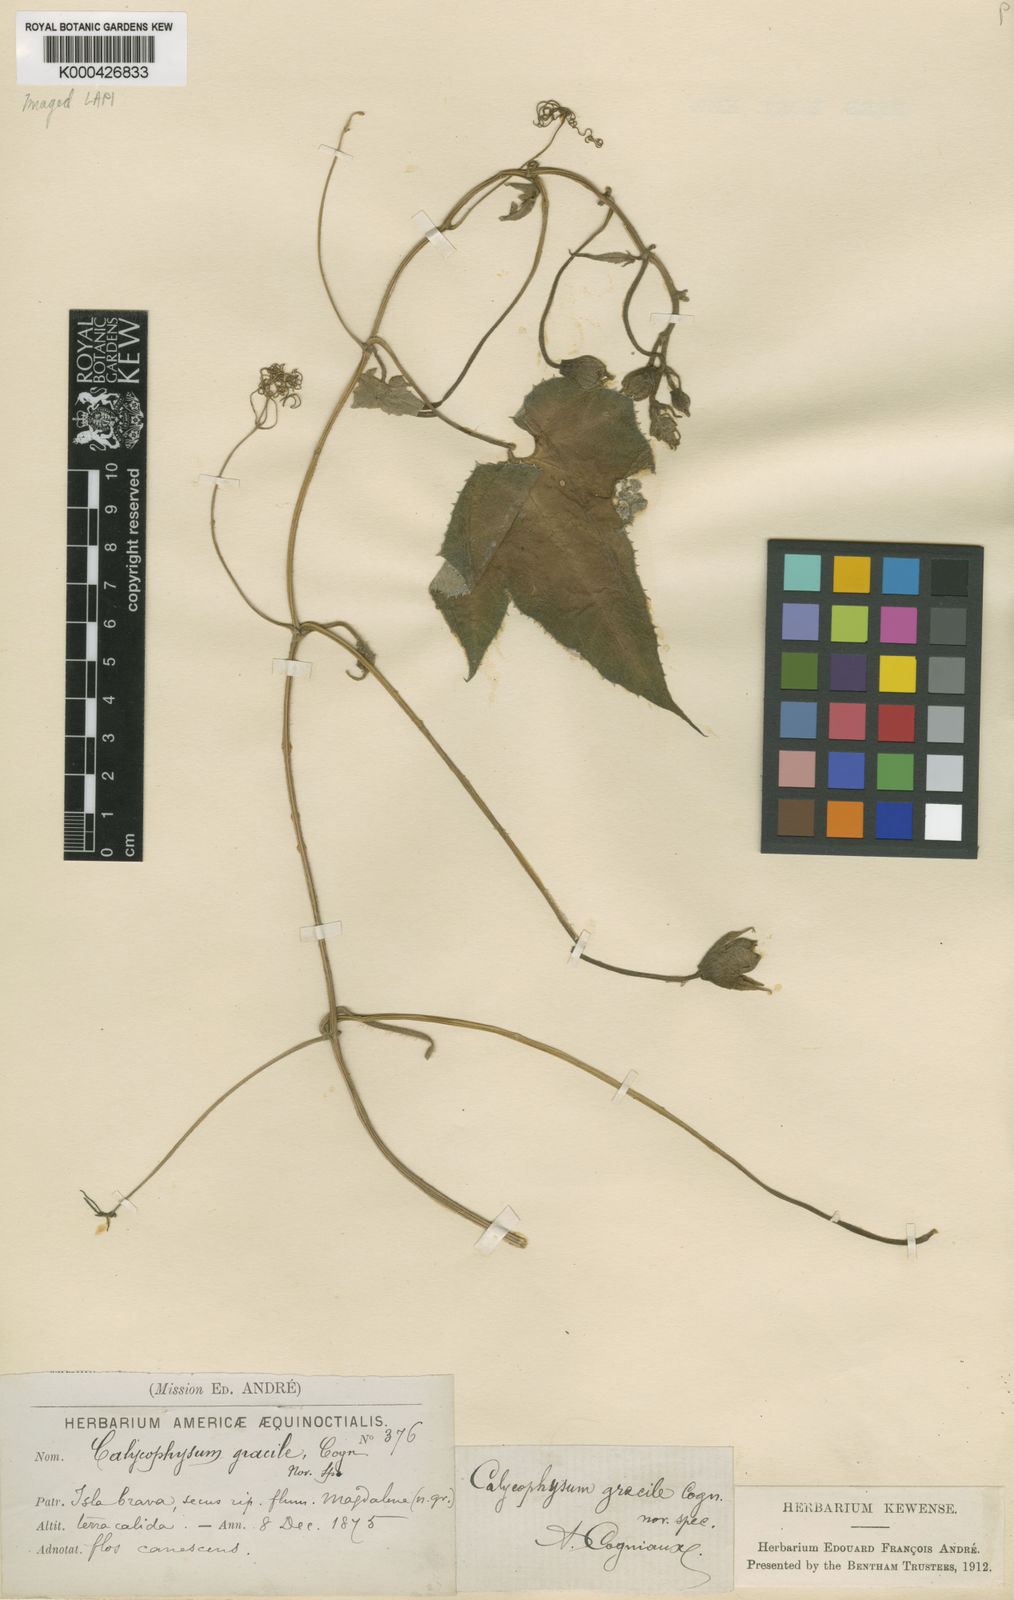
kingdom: Plantae
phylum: Tracheophyta
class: Magnoliopsida
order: Cucurbitales
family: Cucurbitaceae
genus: Calycophysum
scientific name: Calycophysum gracile
